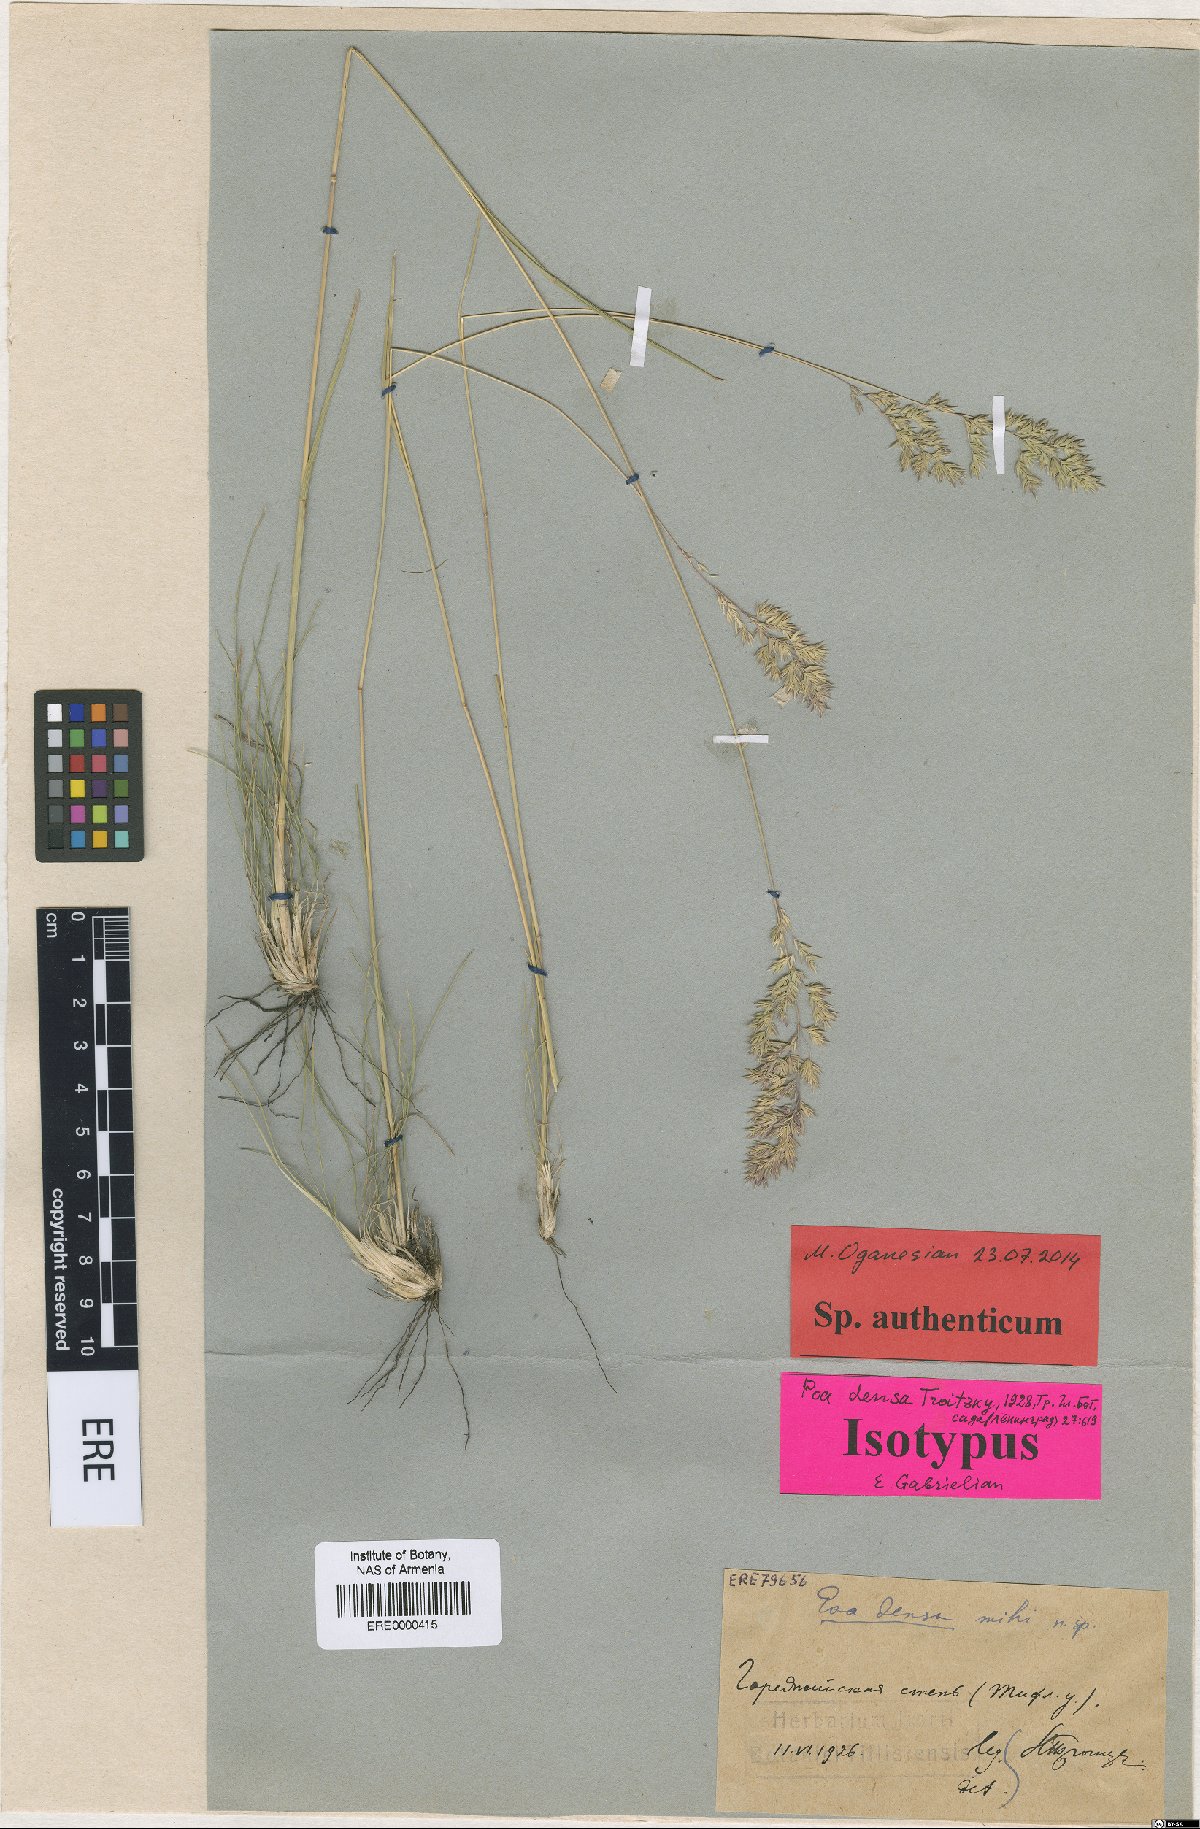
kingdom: Plantae
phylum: Tracheophyta
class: Liliopsida
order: Poales
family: Poaceae
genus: Poa
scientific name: Poa densa
